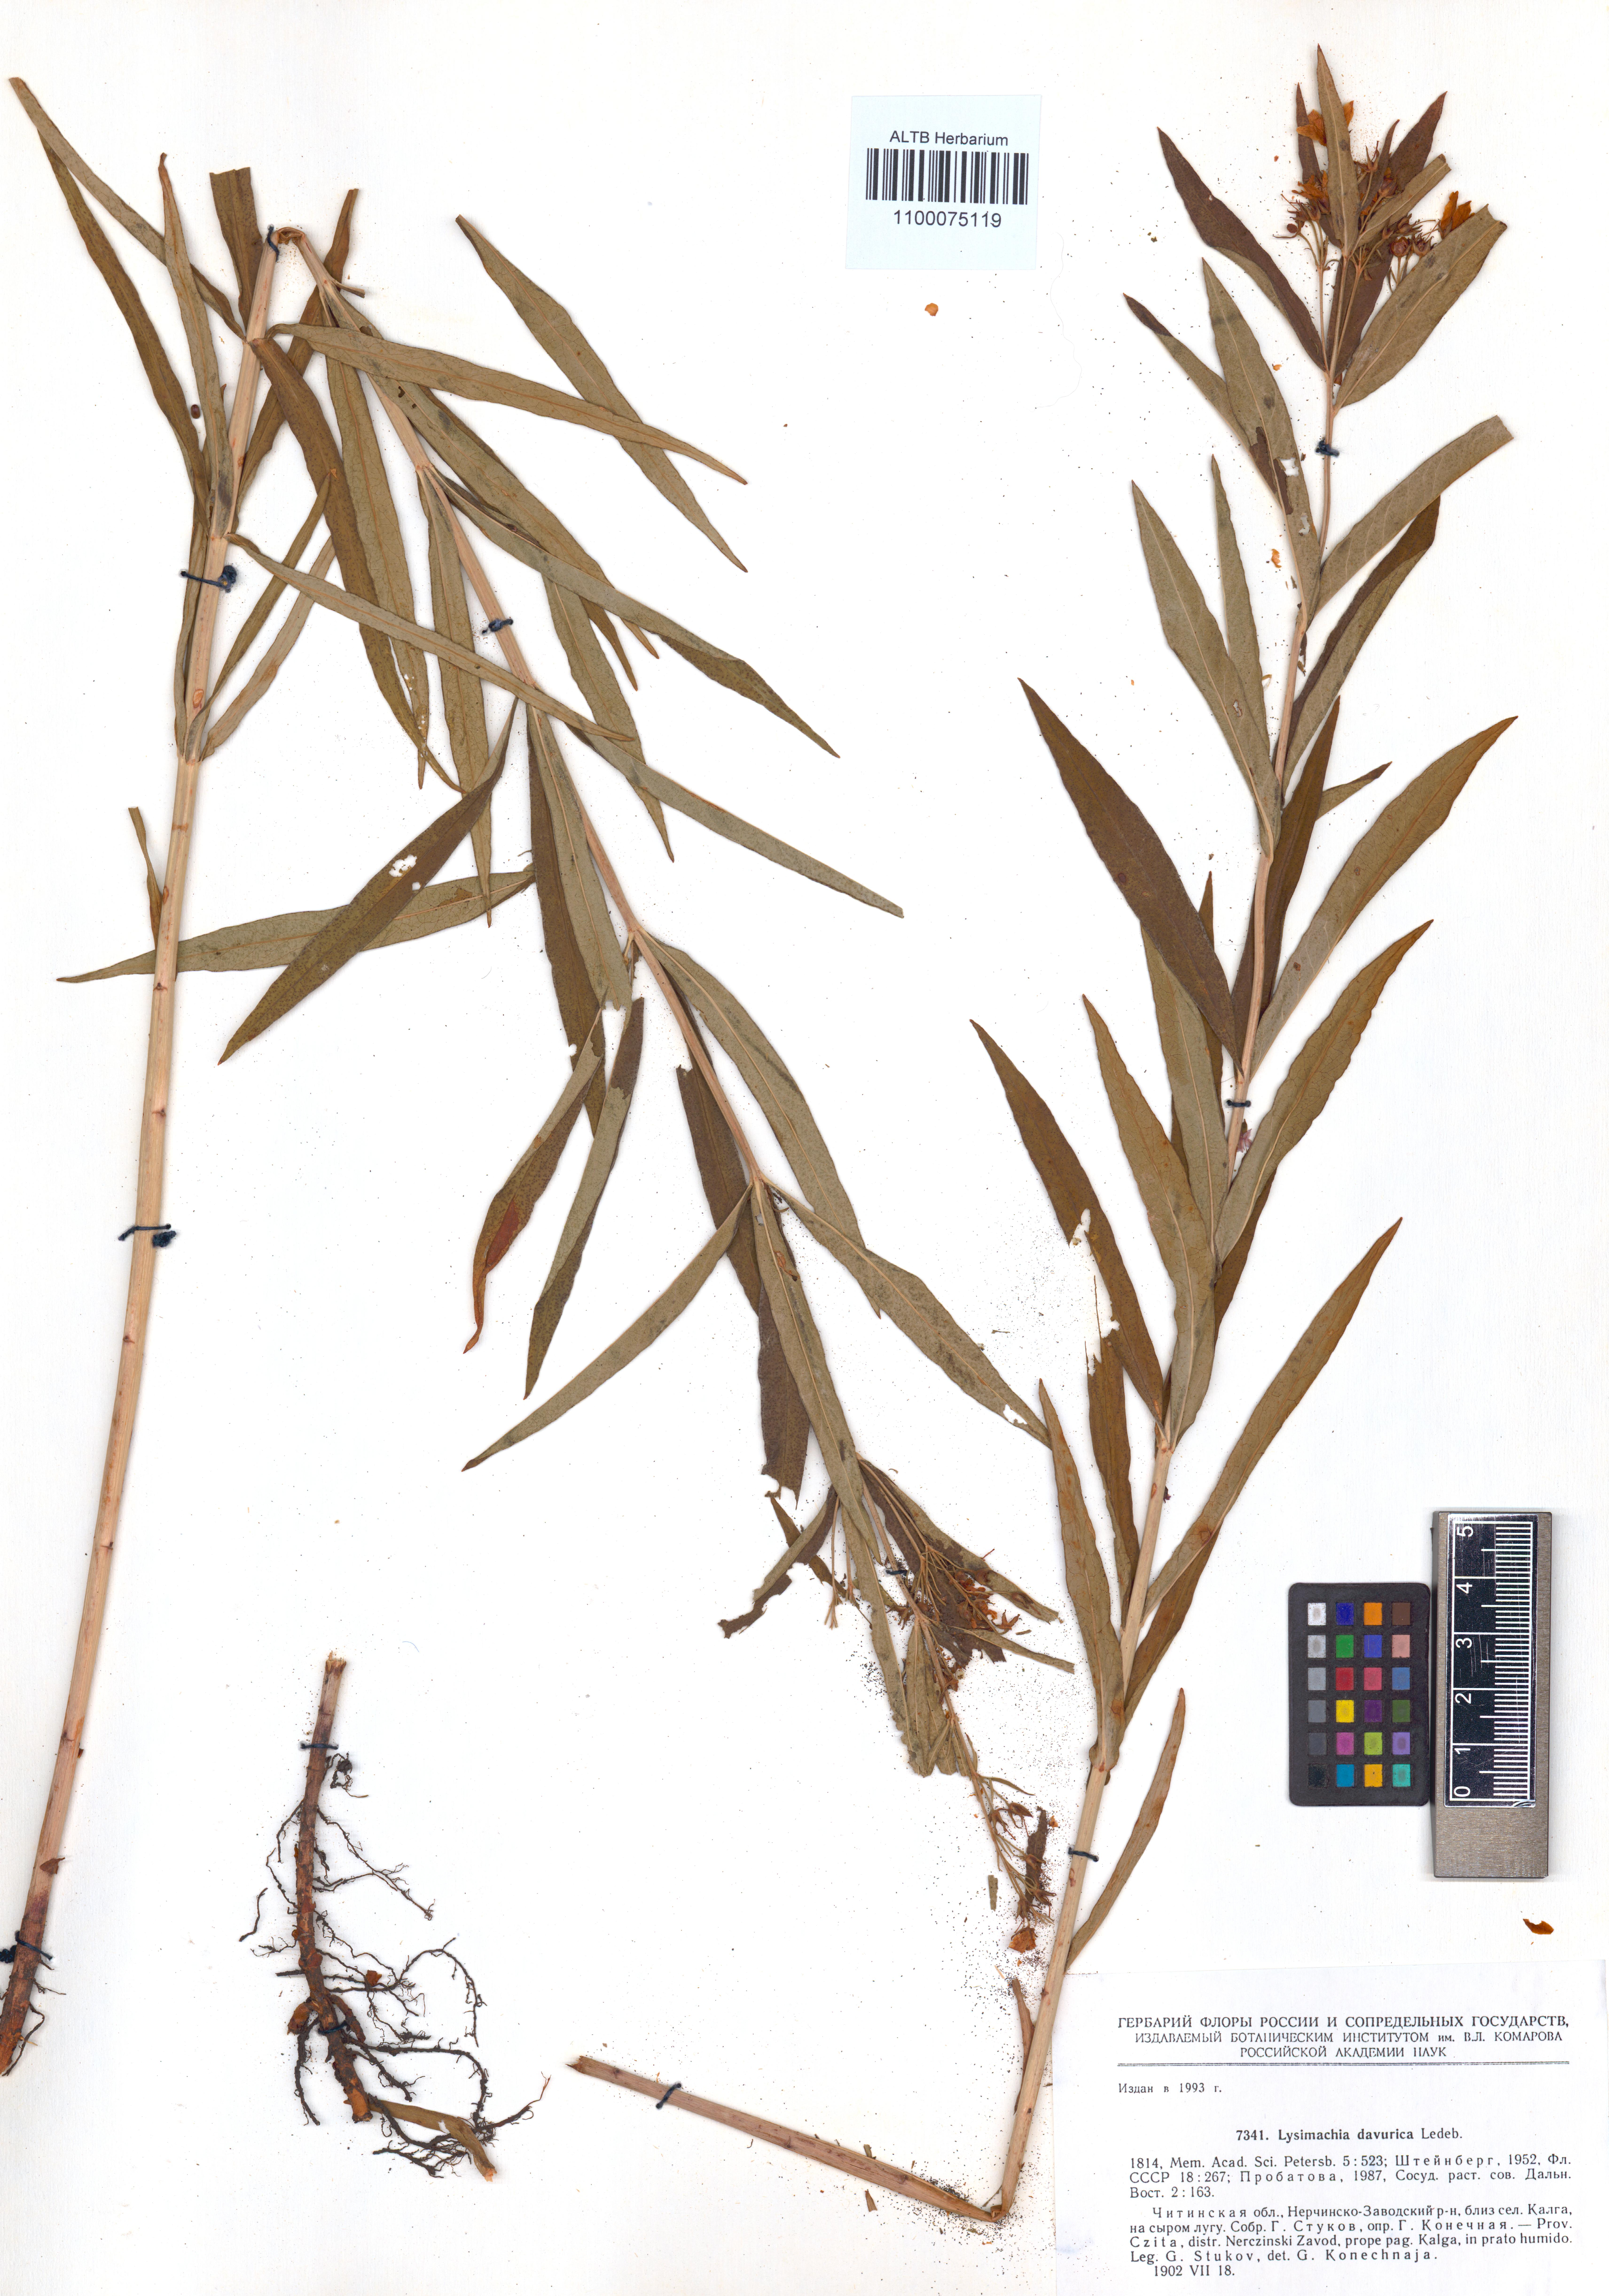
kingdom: Plantae
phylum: Tracheophyta
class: Magnoliopsida
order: Ericales
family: Primulaceae
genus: Lysimachia
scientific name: Lysimachia davurica
